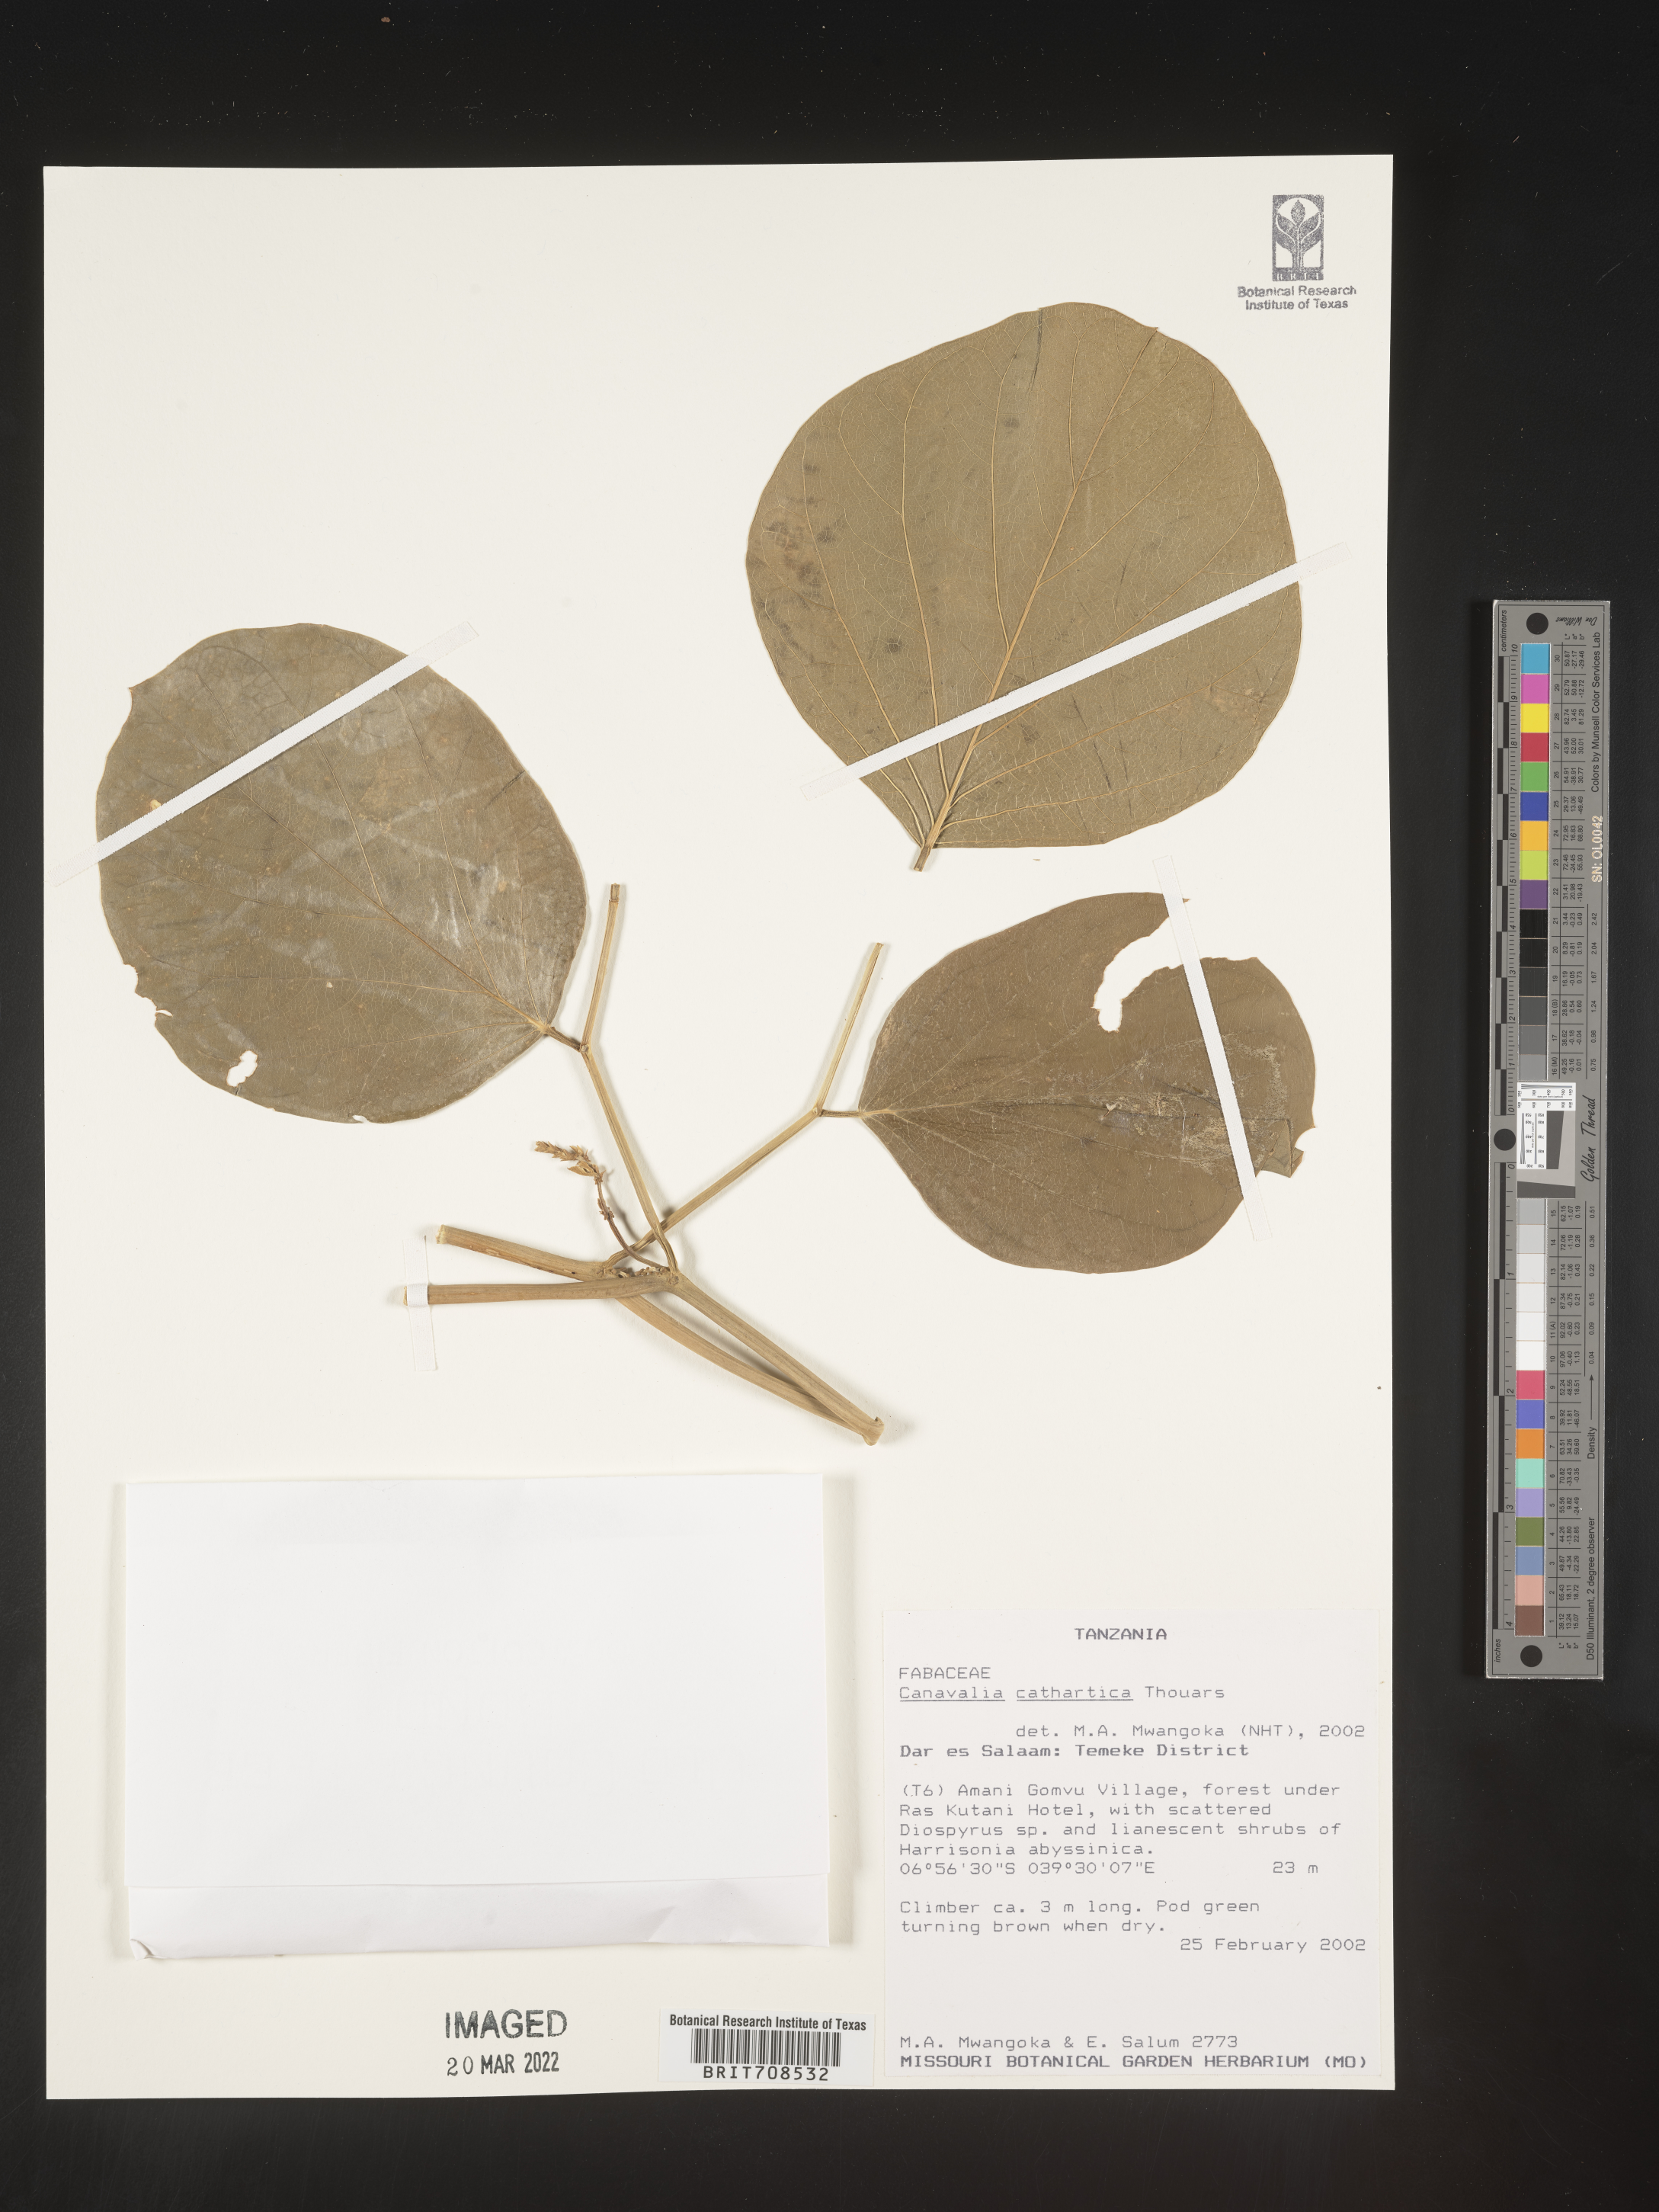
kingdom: Plantae
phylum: Tracheophyta
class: Magnoliopsida
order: Fabales
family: Fabaceae
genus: Canavalia
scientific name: Canavalia
